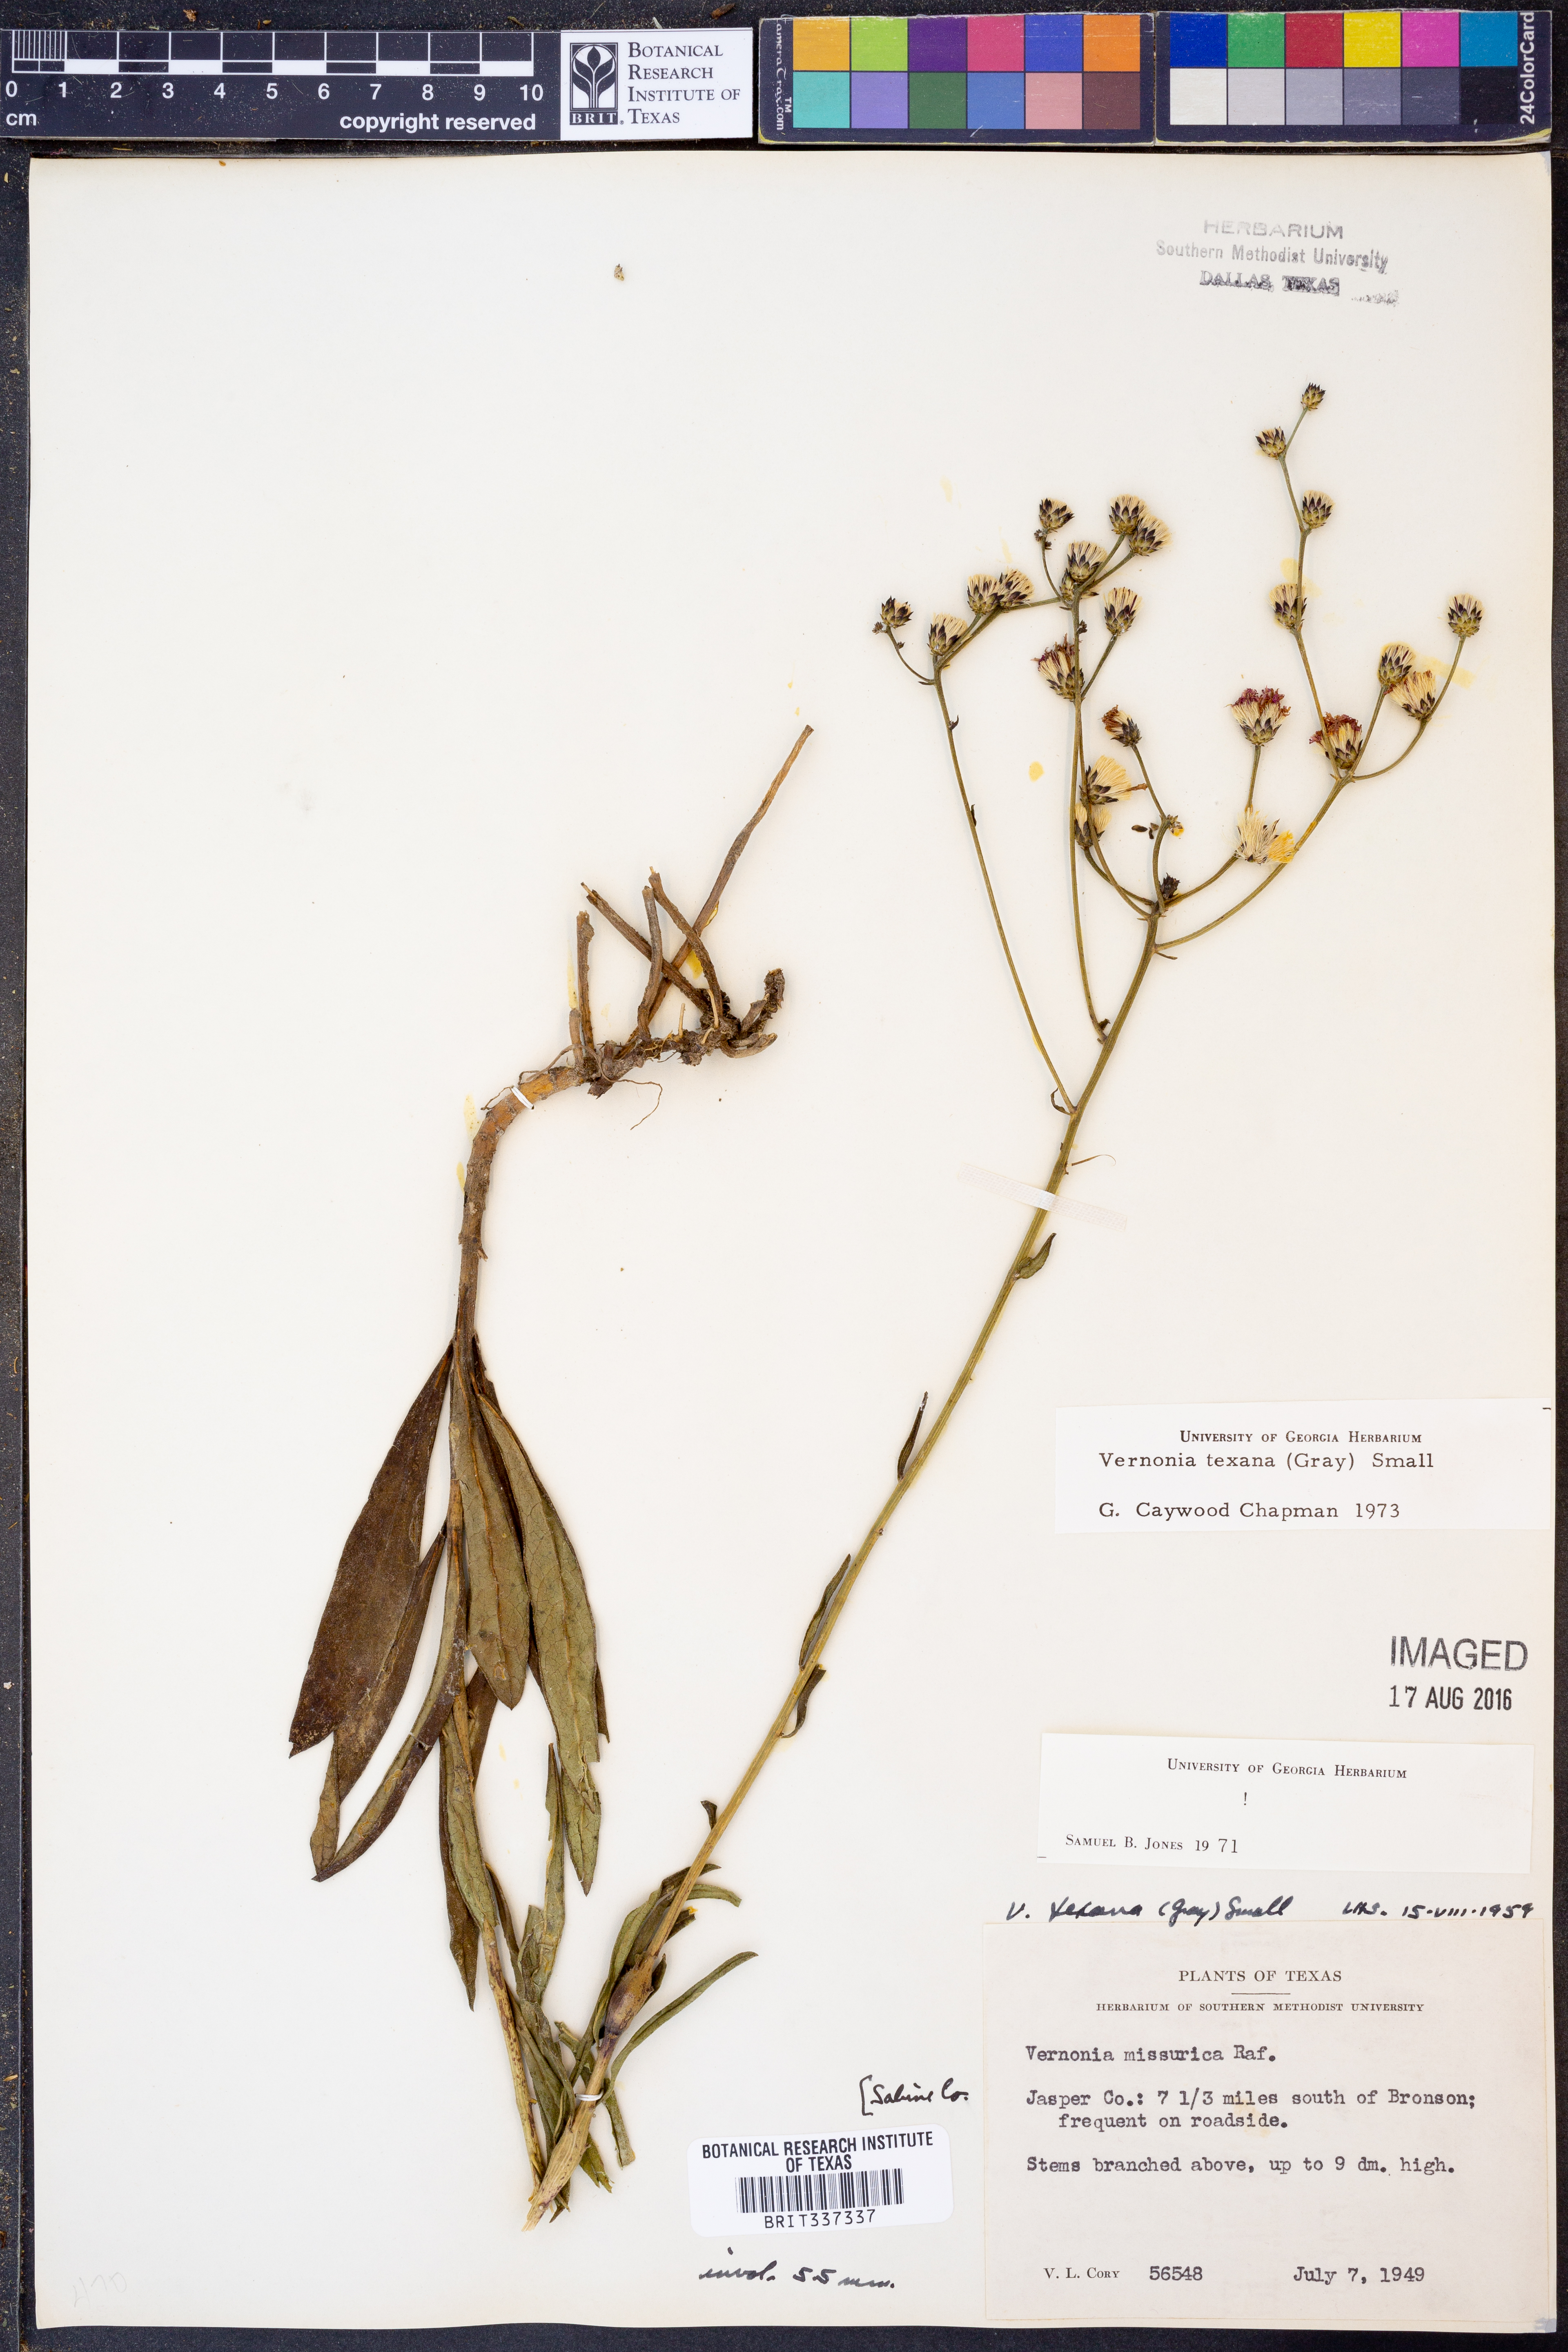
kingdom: Plantae
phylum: Tracheophyta
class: Magnoliopsida
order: Asterales
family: Asteraceae
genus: Vernonia
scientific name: Vernonia texana
